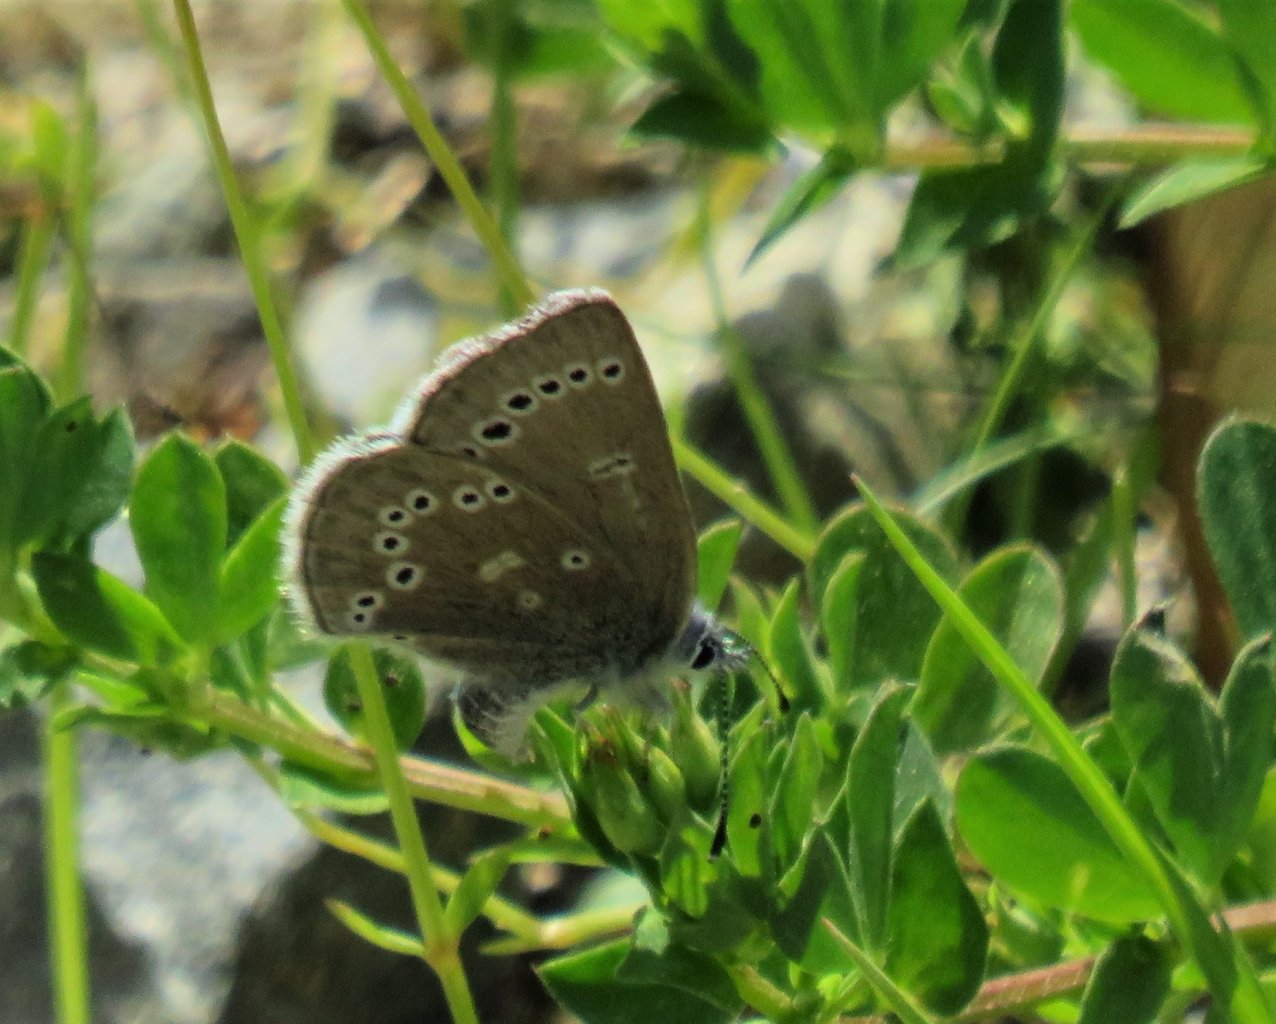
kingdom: Animalia
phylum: Arthropoda
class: Insecta
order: Lepidoptera
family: Lycaenidae
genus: Glaucopsyche
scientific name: Glaucopsyche lygdamus
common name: Silvery Blue
